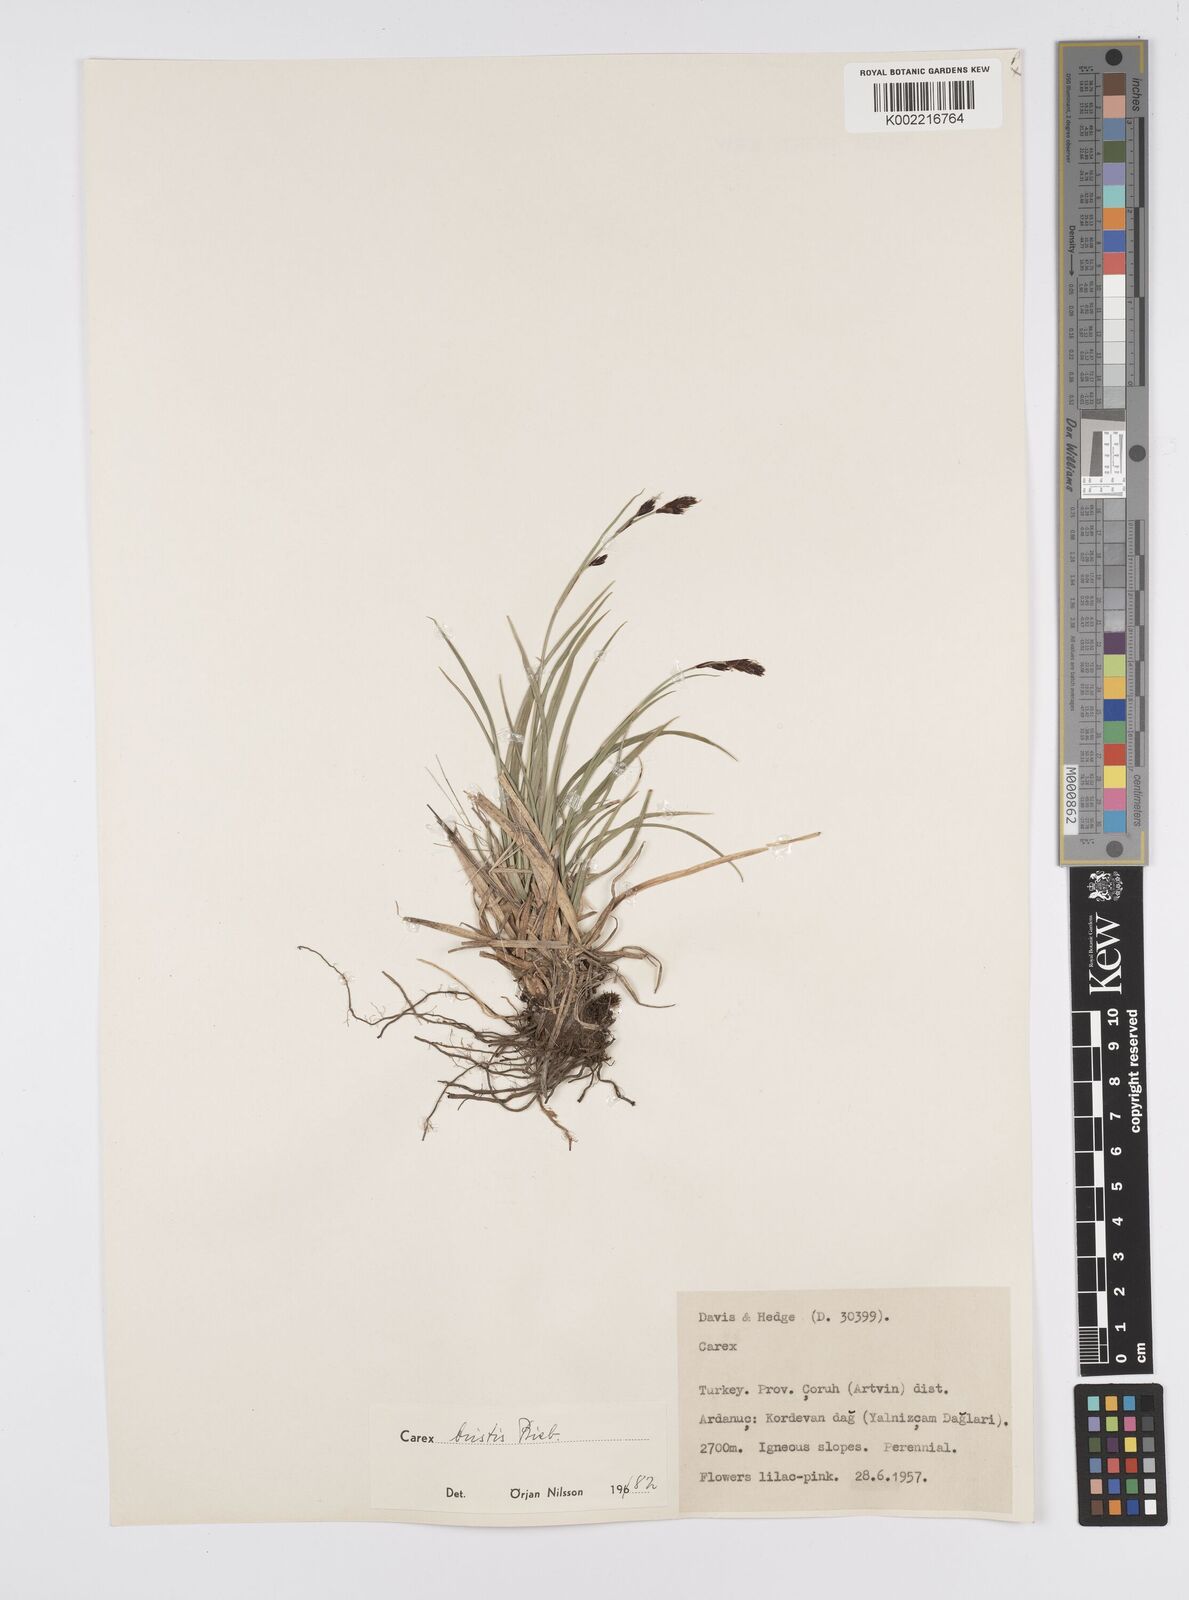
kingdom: Plantae
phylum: Tracheophyta
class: Liliopsida
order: Poales
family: Cyperaceae
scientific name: Cyperaceae
